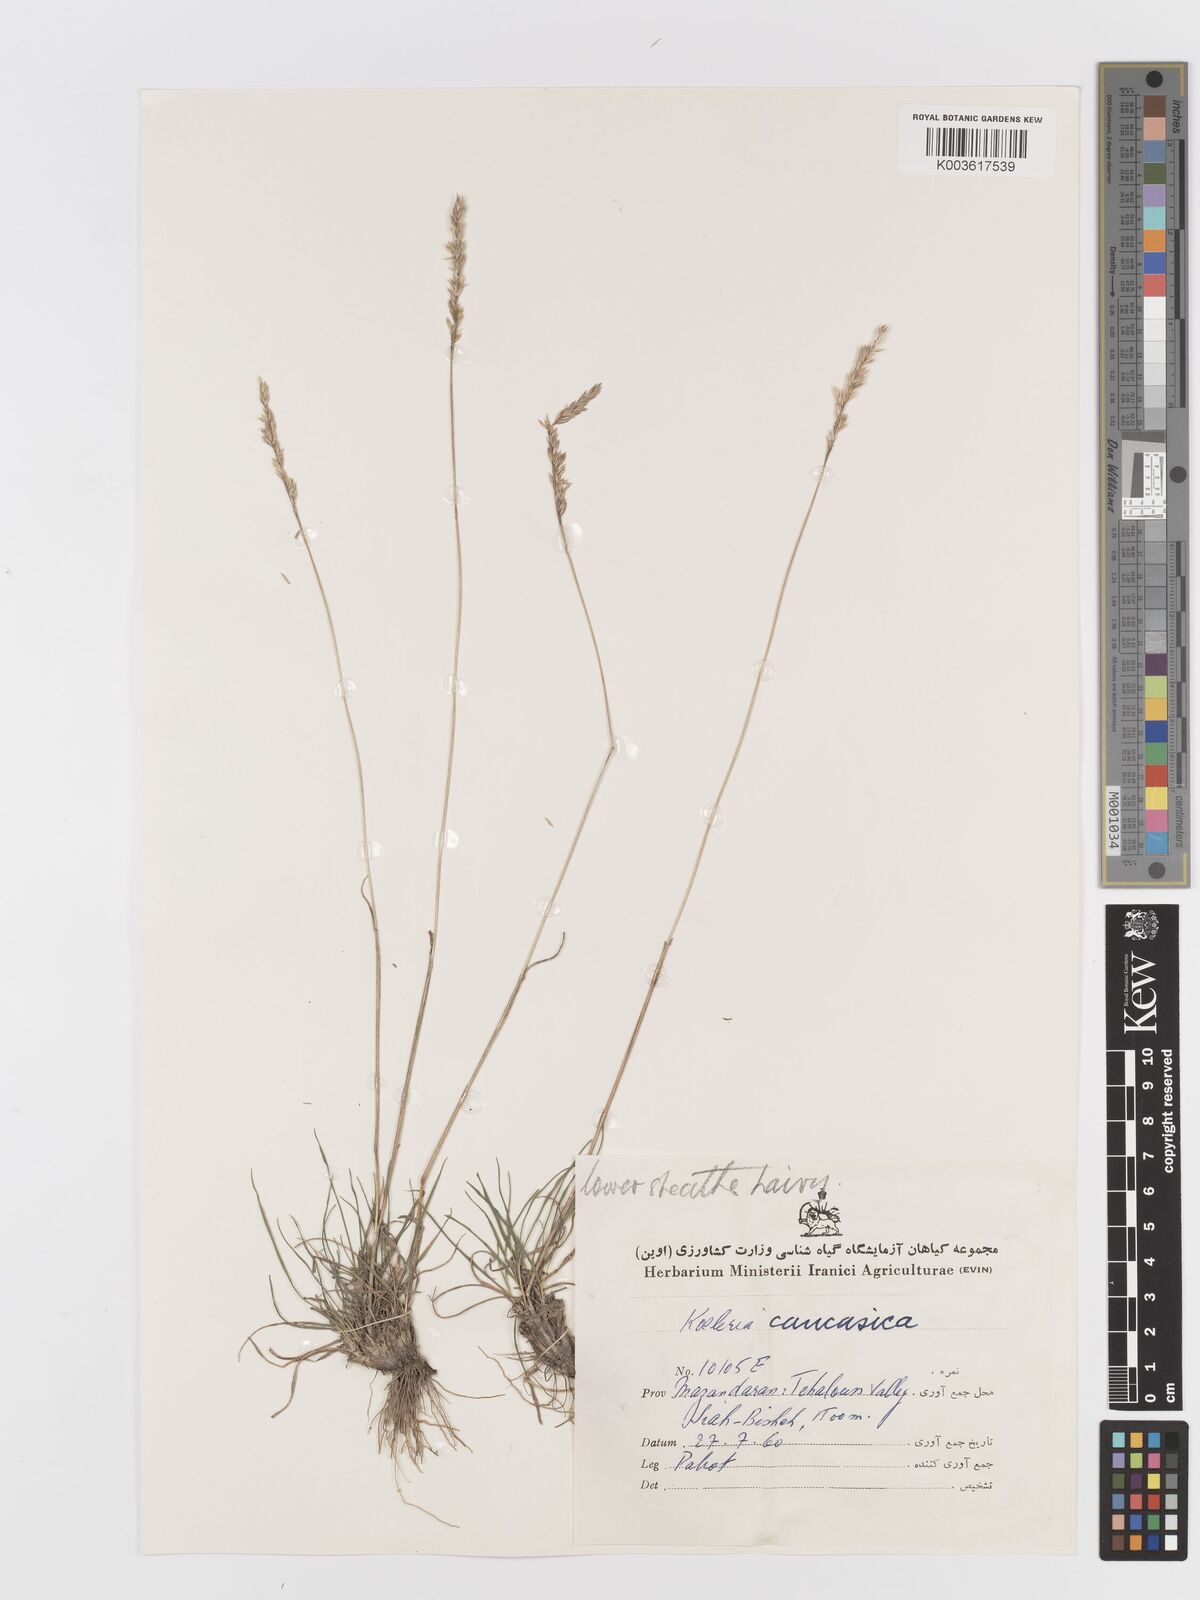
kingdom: Plantae
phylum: Tracheophyta
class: Liliopsida
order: Poales
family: Poaceae
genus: Koeleria
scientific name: Koeleria eriostachya
